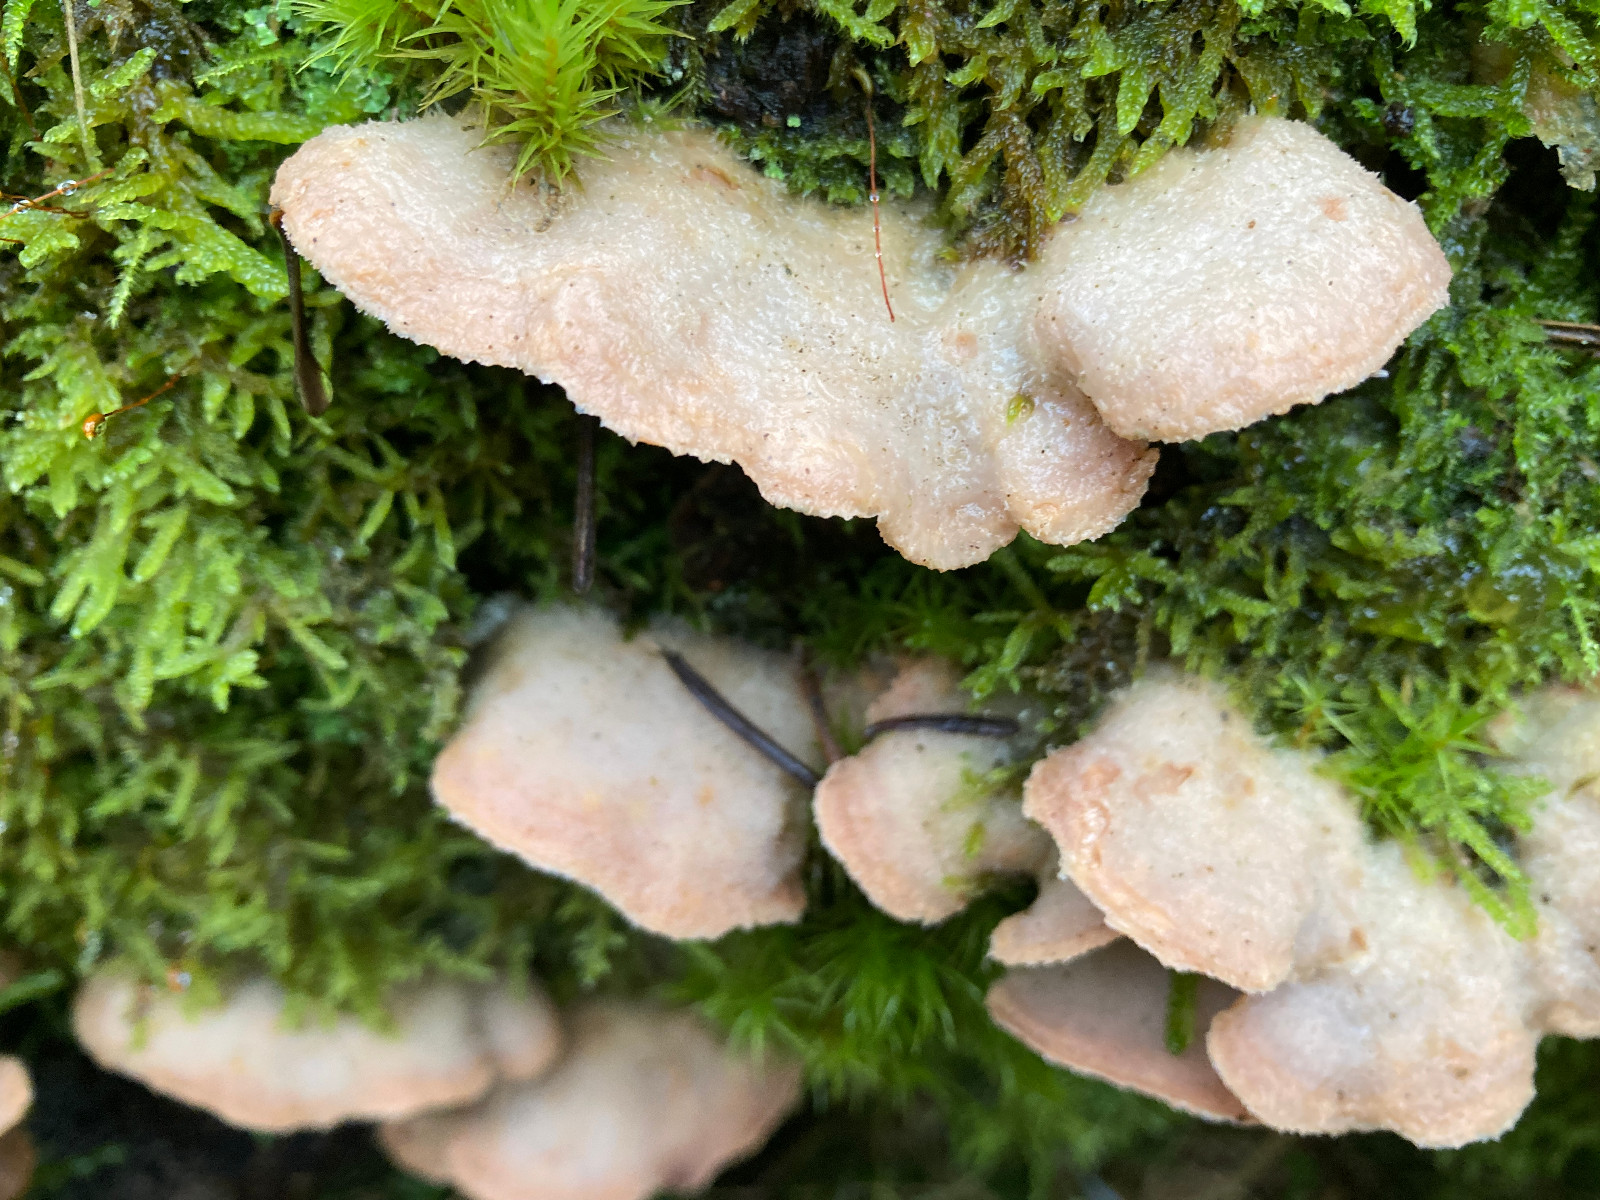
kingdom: Fungi
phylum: Basidiomycota
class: Agaricomycetes
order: Polyporales
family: Meruliaceae
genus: Phlebia
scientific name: Phlebia tremellosa
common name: bævrende åresvamp
